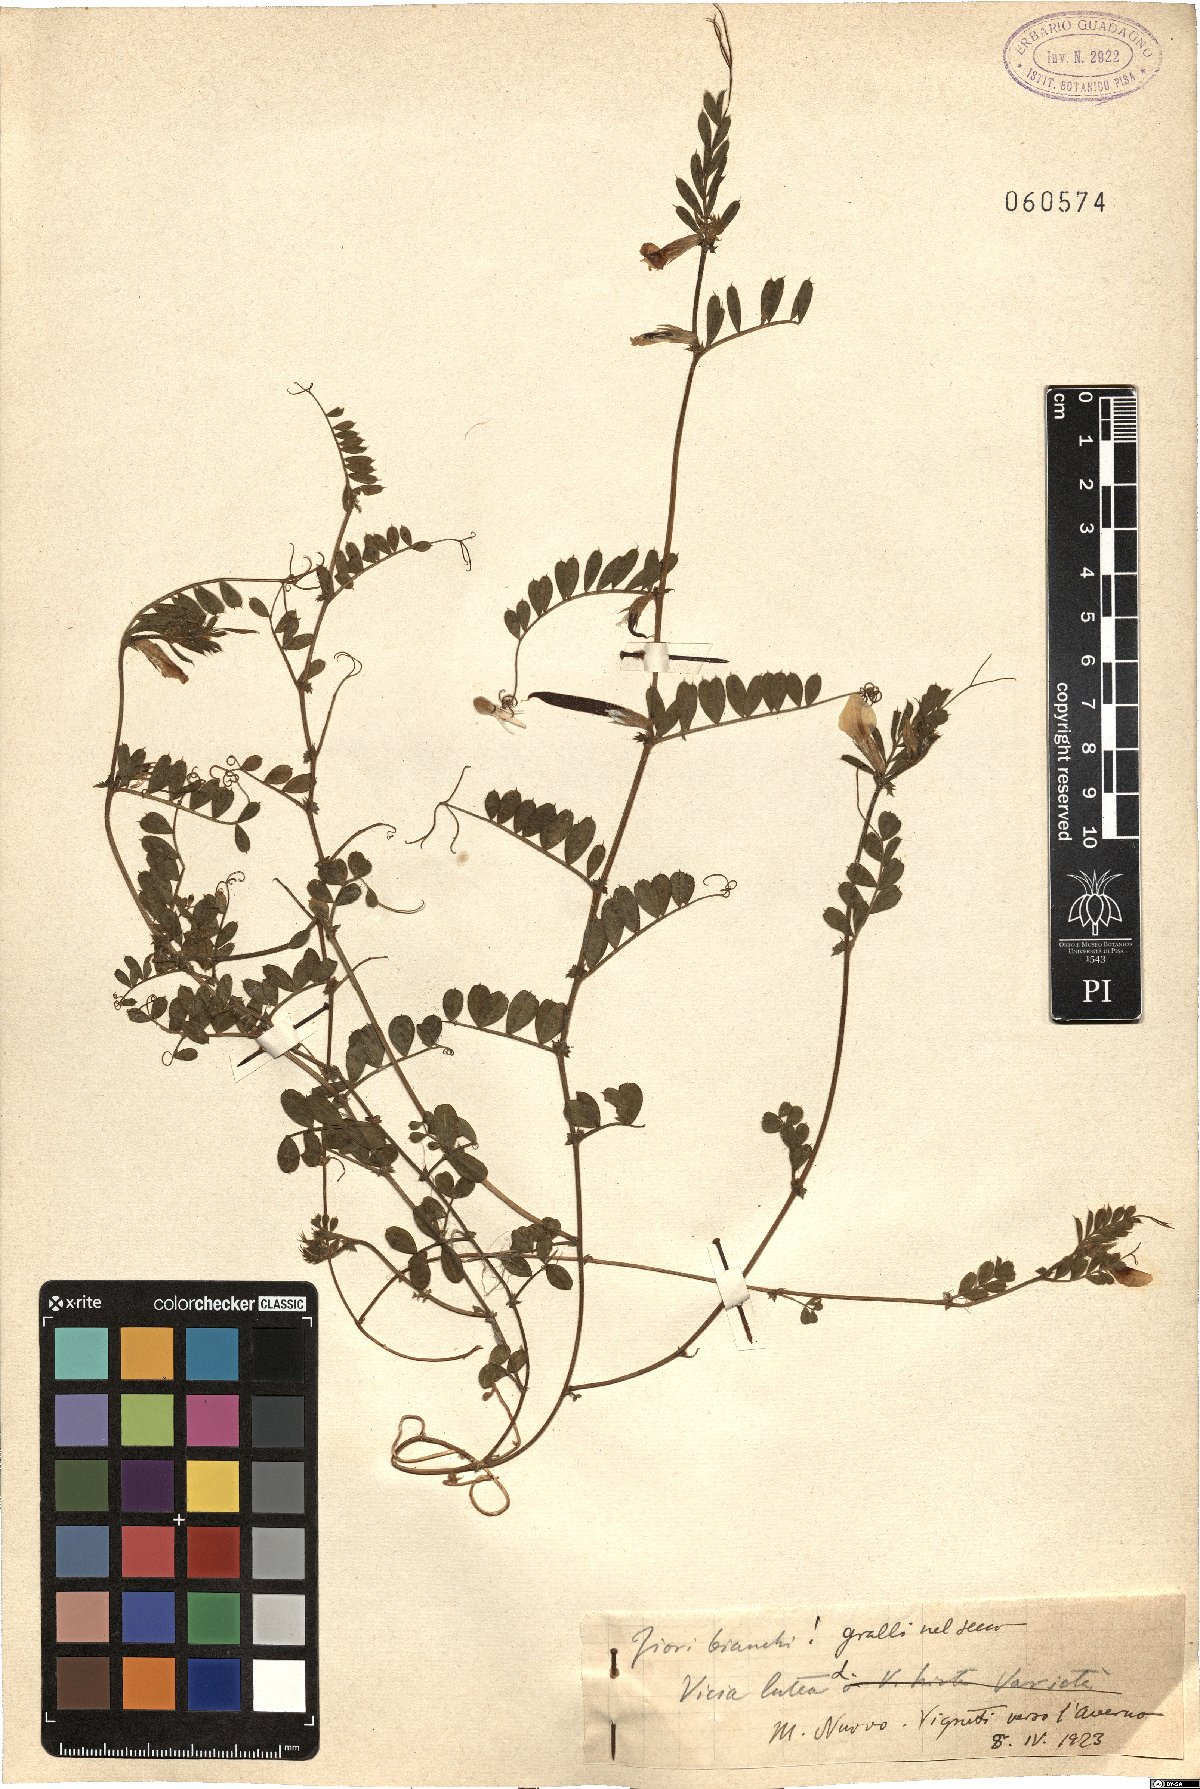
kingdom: Plantae
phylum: Tracheophyta
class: Magnoliopsida
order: Fabales
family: Fabaceae
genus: Vicia
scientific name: Vicia lutea
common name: Smooth yellow vetch
